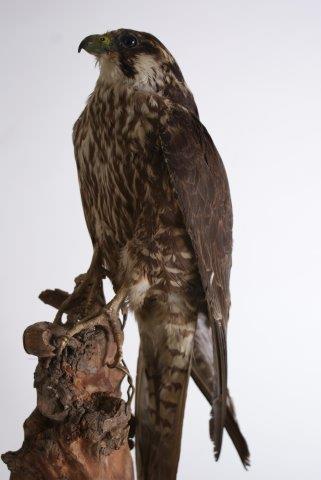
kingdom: Animalia
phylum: Chordata
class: Aves
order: Falconiformes
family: Falconidae
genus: Falco
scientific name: Falco peregrinus
